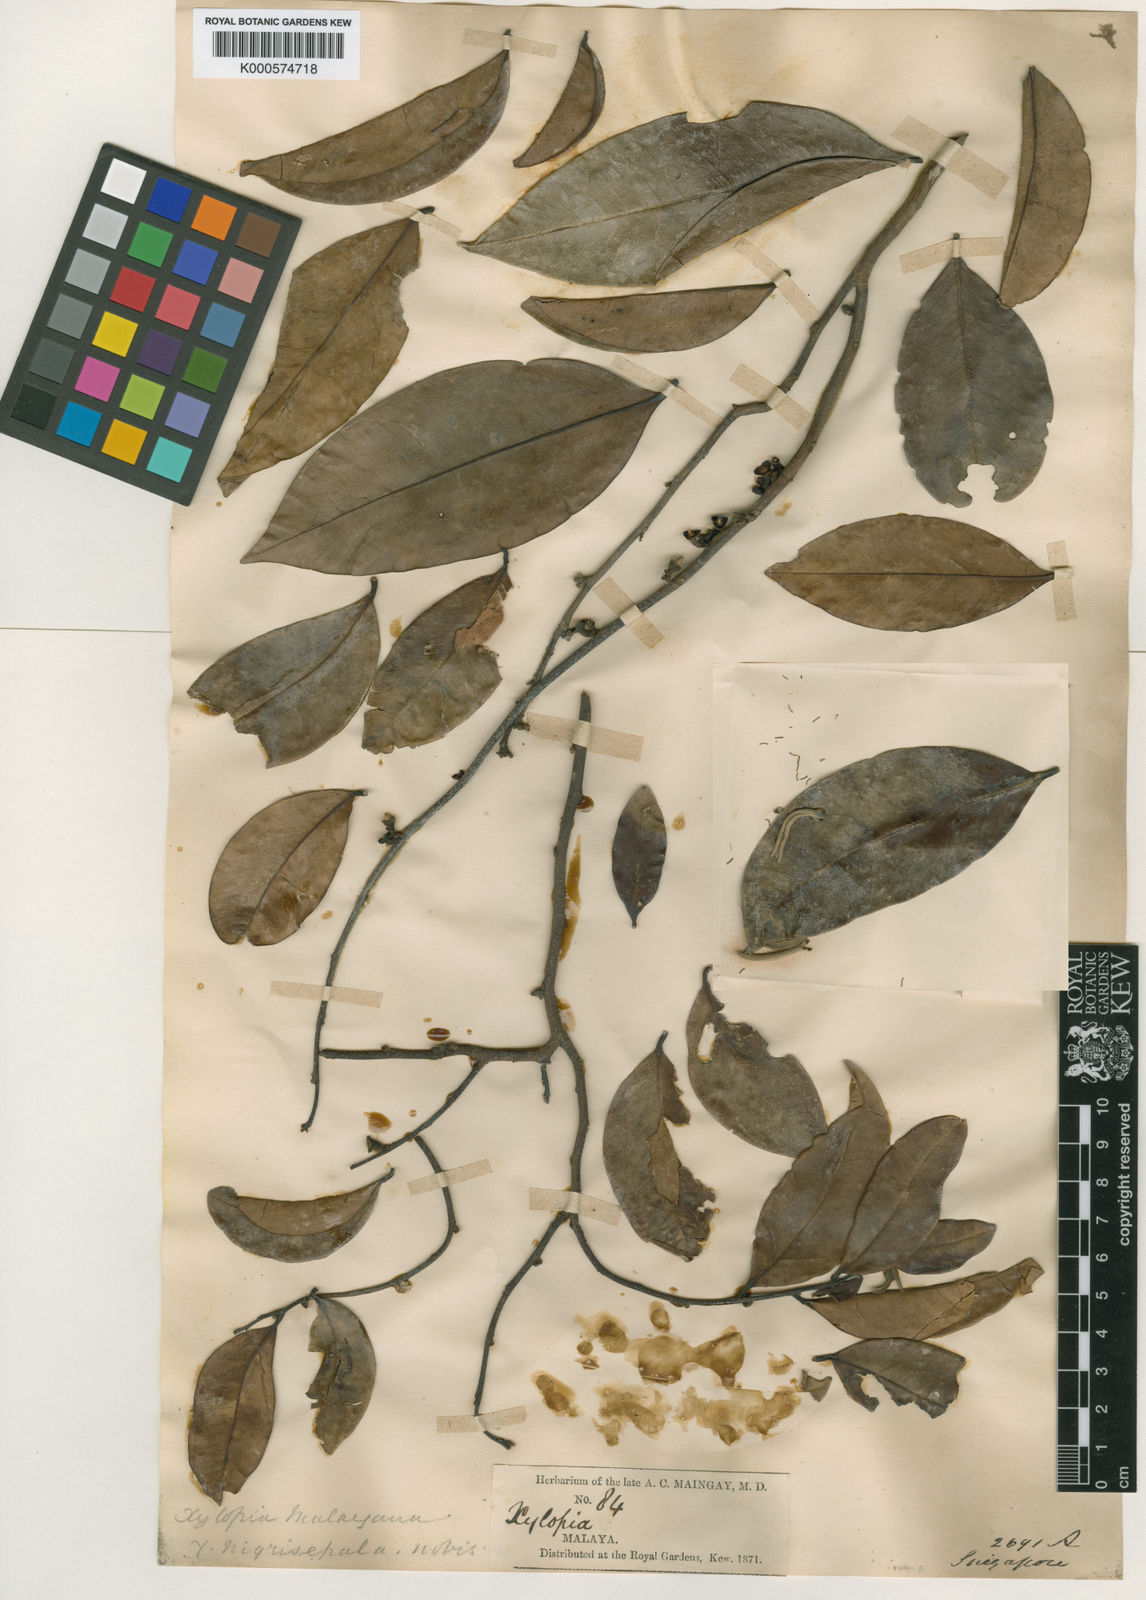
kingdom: Plantae
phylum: Tracheophyta
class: Magnoliopsida
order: Magnoliales
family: Annonaceae
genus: Xylopia
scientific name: Xylopia malayana
